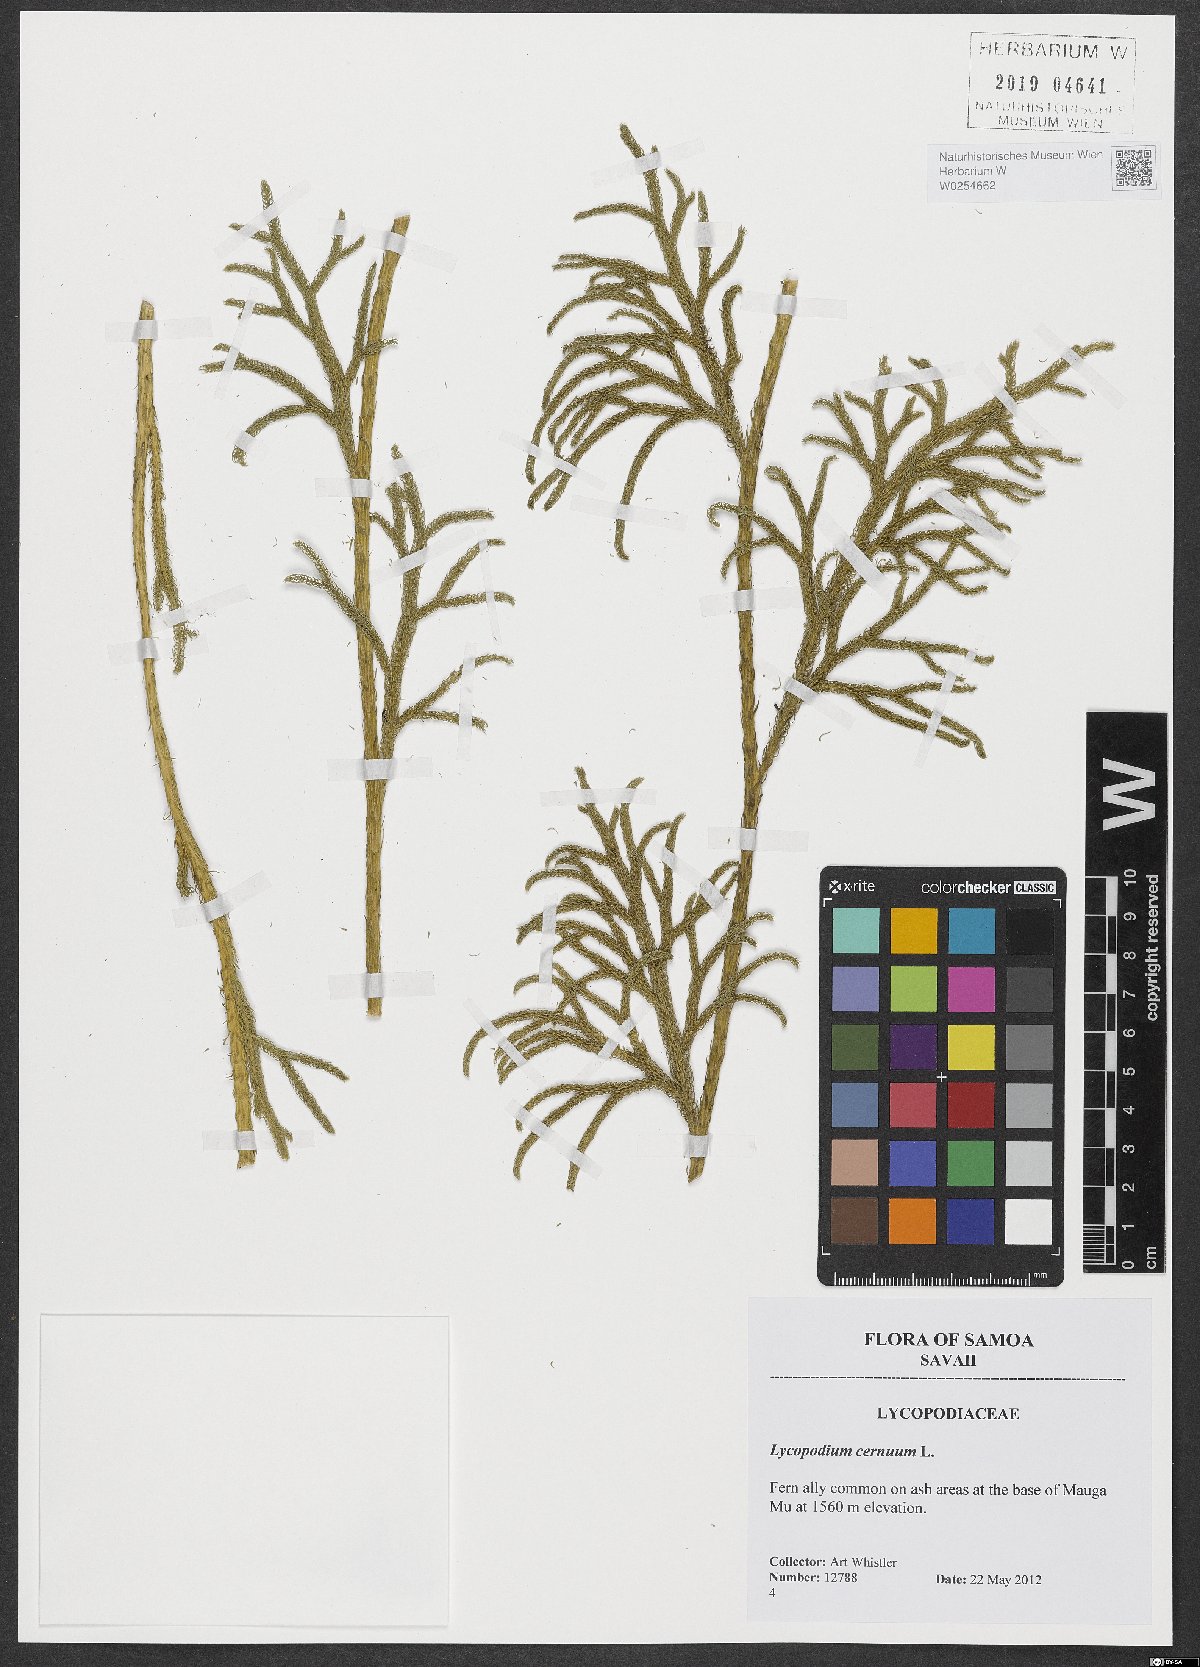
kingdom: Plantae
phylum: Tracheophyta
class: Lycopodiopsida
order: Lycopodiales
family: Lycopodiaceae
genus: Palhinhaea
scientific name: Palhinhaea cernua
